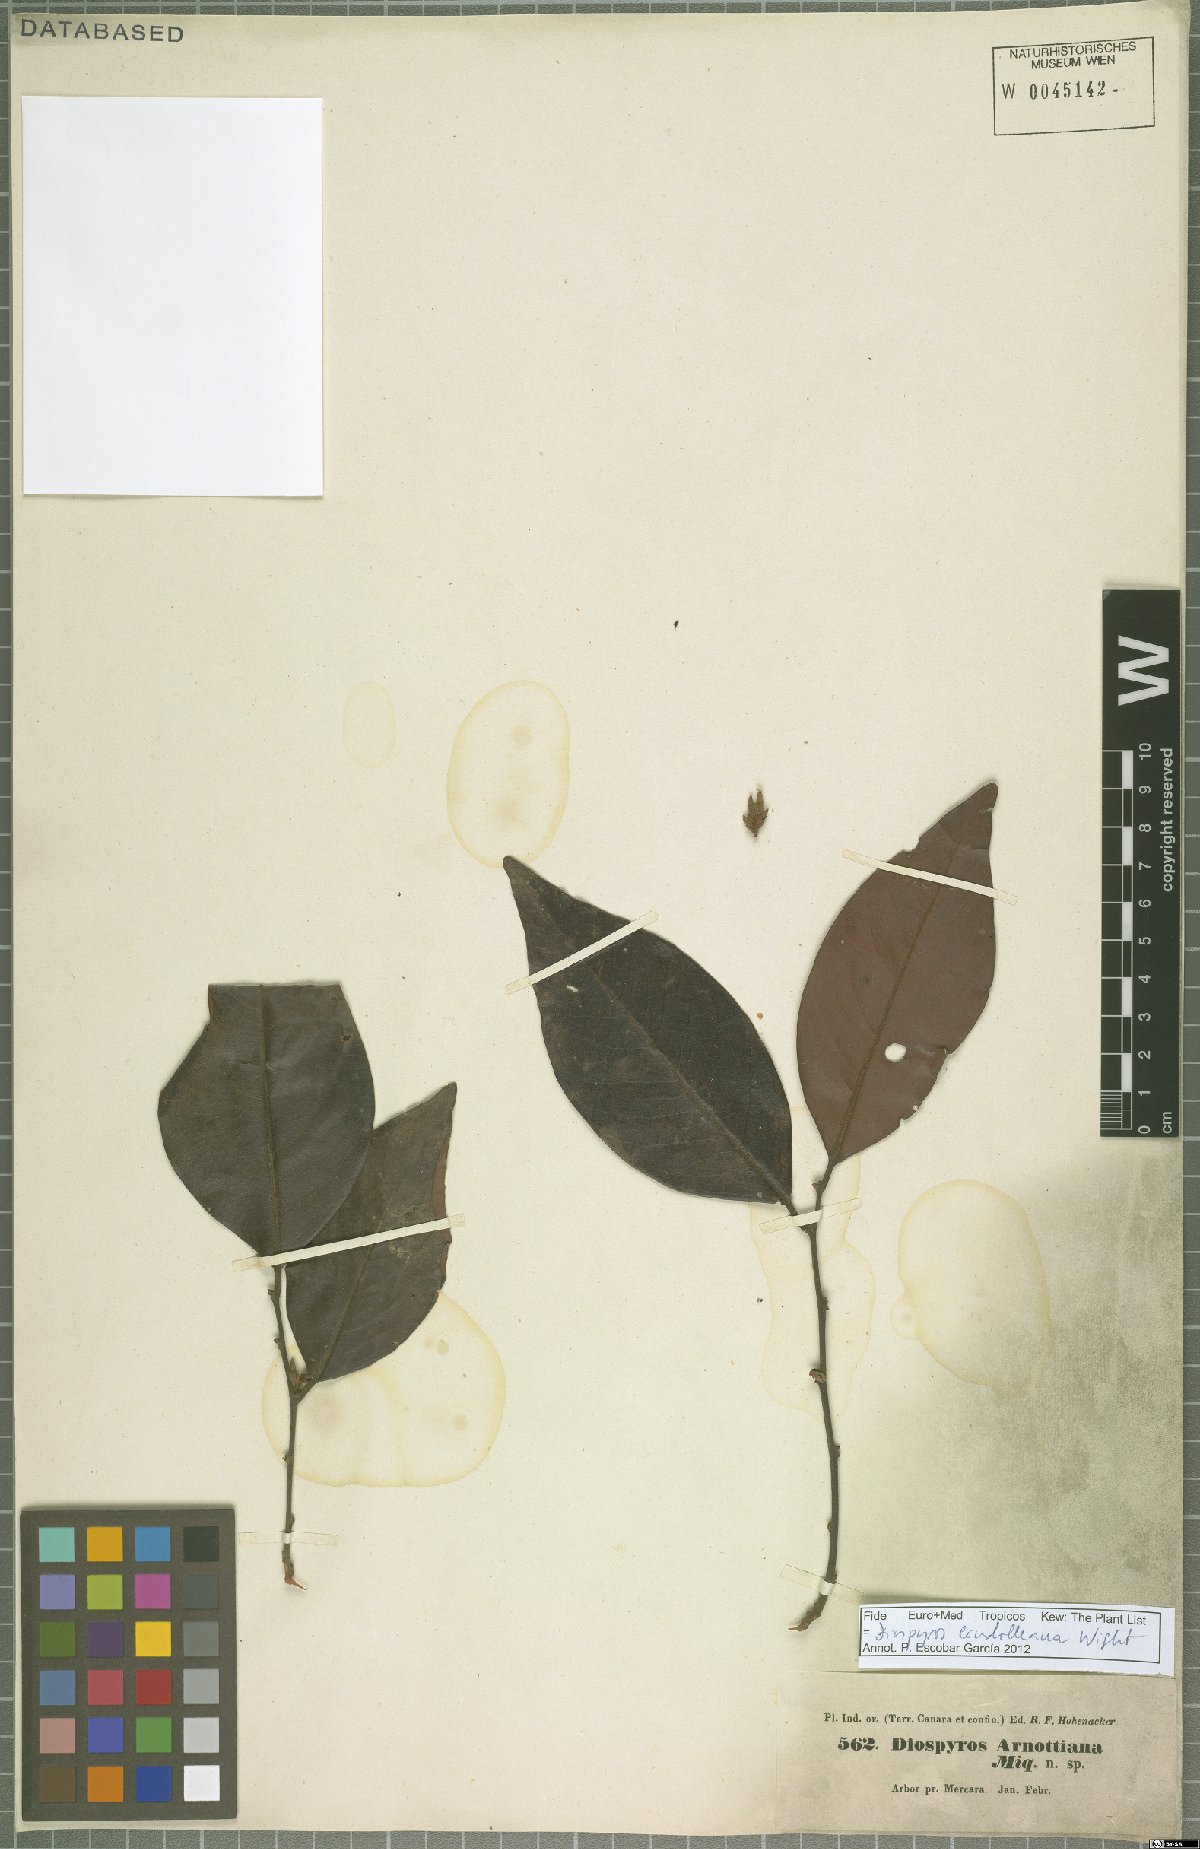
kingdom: Plantae
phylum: Tracheophyta
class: Magnoliopsida
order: Ericales
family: Ebenaceae
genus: Diospyros
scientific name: Diospyros candolleana
